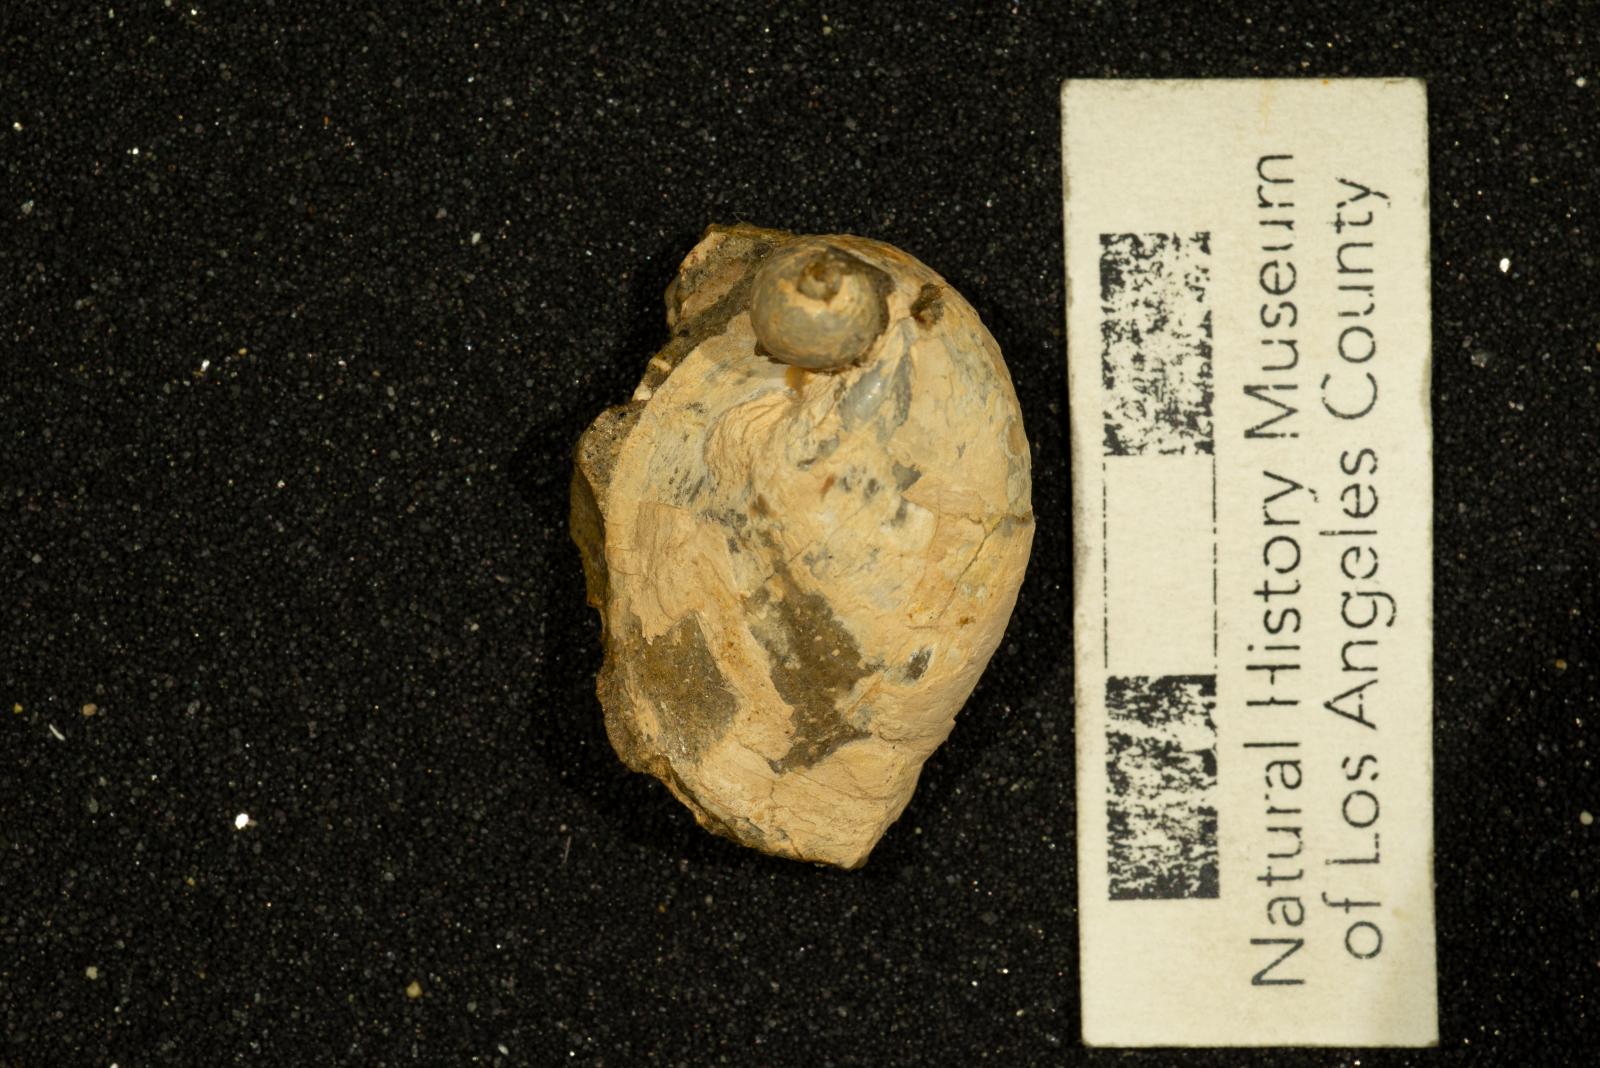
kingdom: Animalia
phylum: Mollusca
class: Gastropoda
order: Littorinimorpha
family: Calyptraeidae
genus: Lysis
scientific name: Lysis Stomatia suciensis
